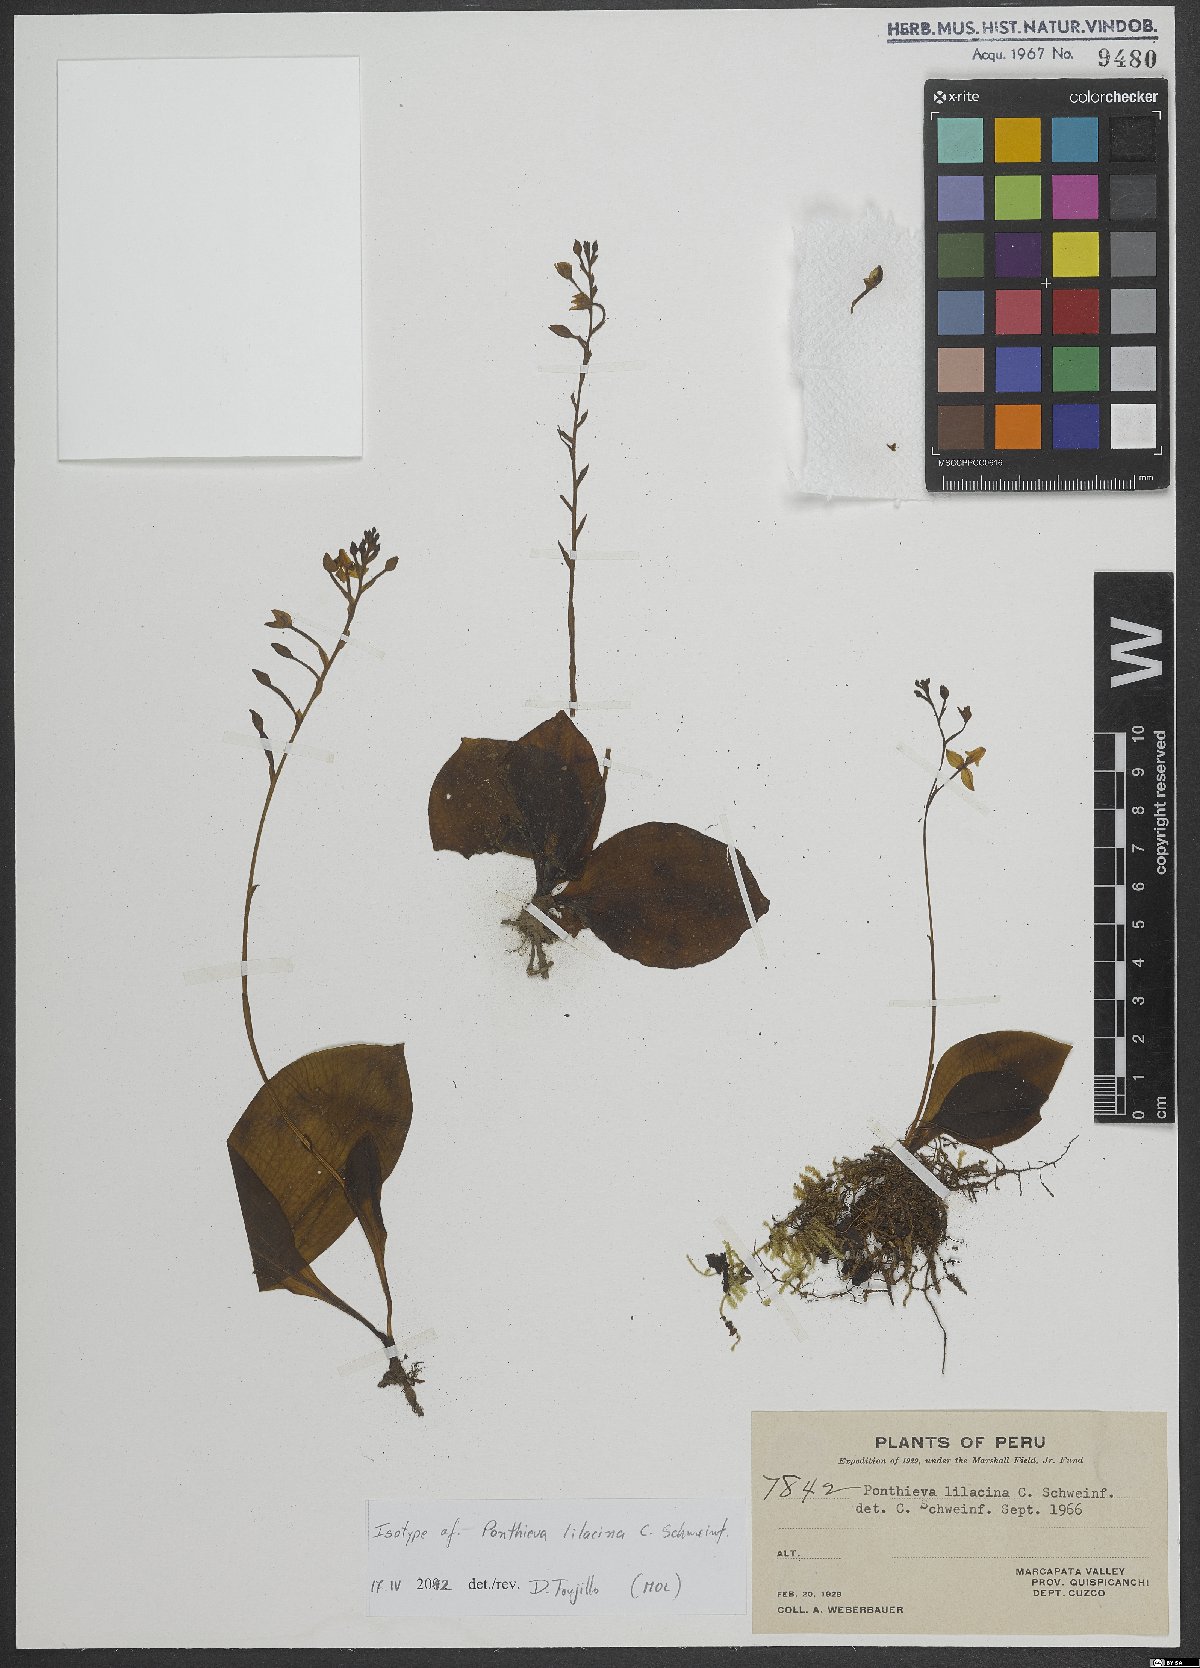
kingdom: Plantae
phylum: Tracheophyta
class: Liliopsida
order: Asparagales
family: Orchidaceae
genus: Ponthieva
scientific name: Ponthieva lilacina
